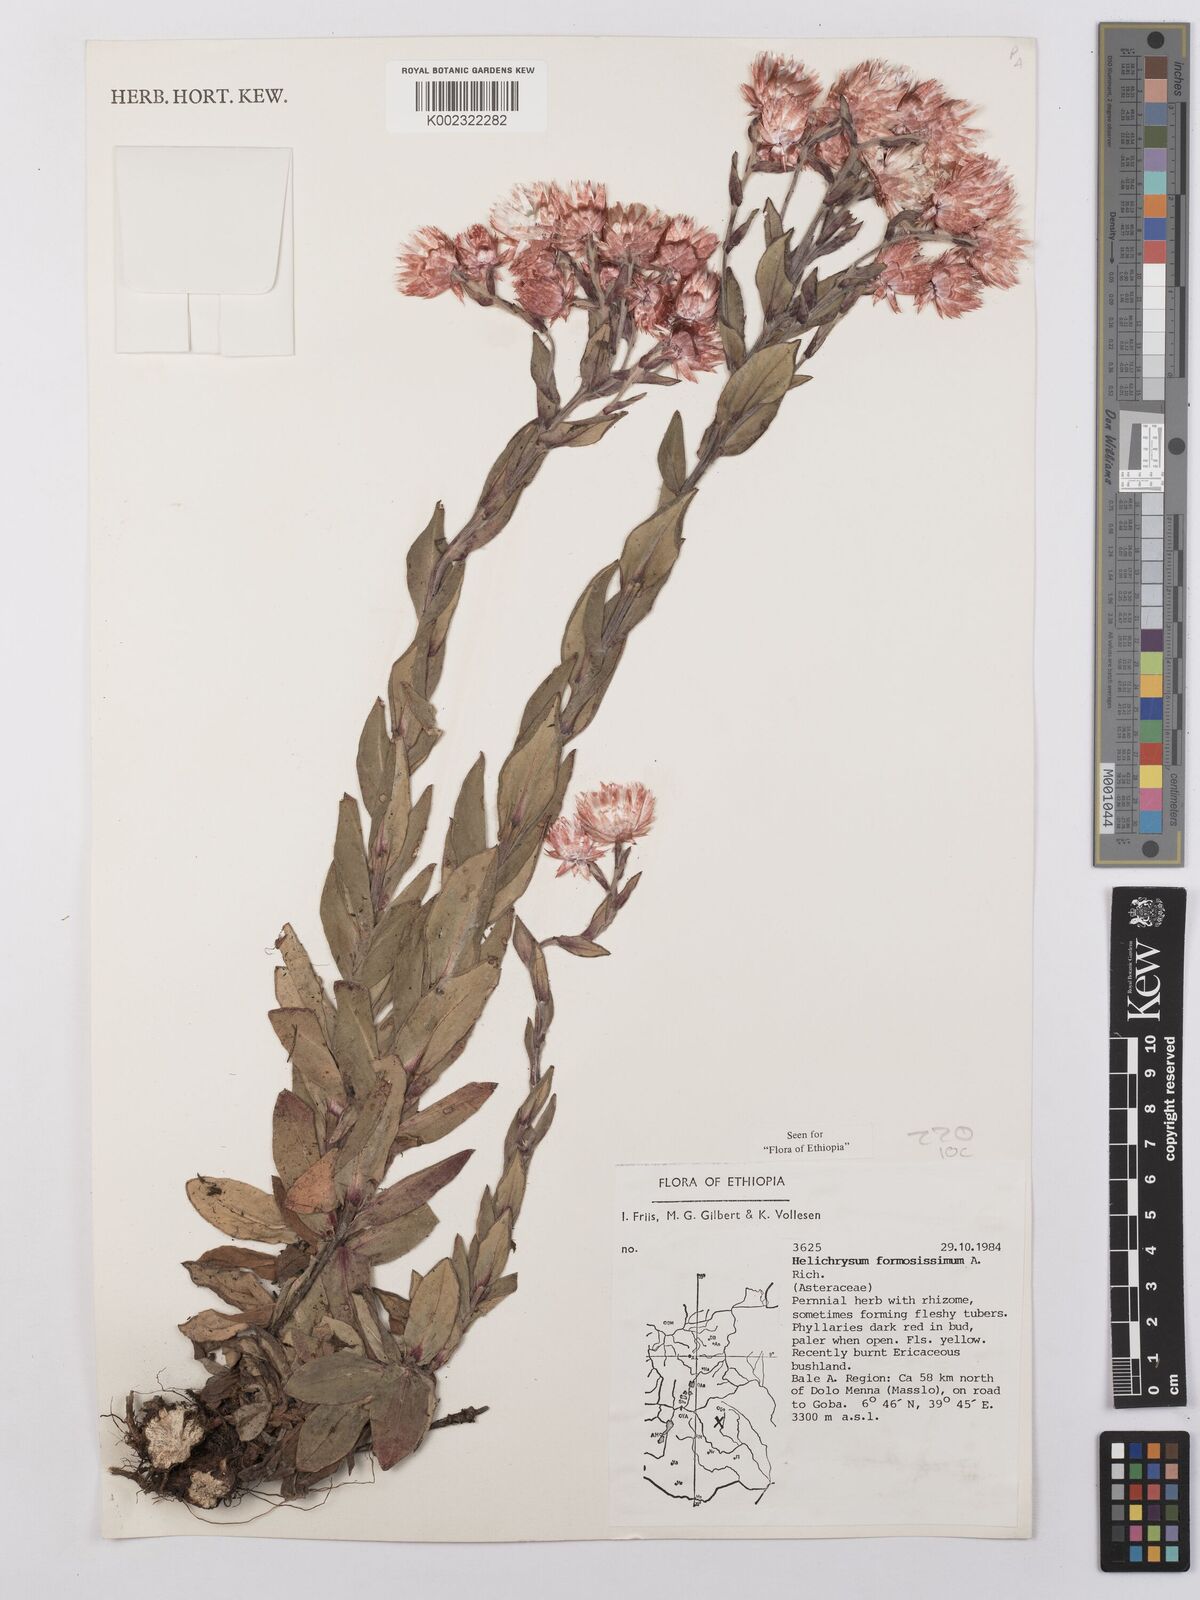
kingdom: Plantae
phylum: Tracheophyta
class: Magnoliopsida
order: Asterales
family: Asteraceae
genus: Helichrysum
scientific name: Helichrysum formosissimum
